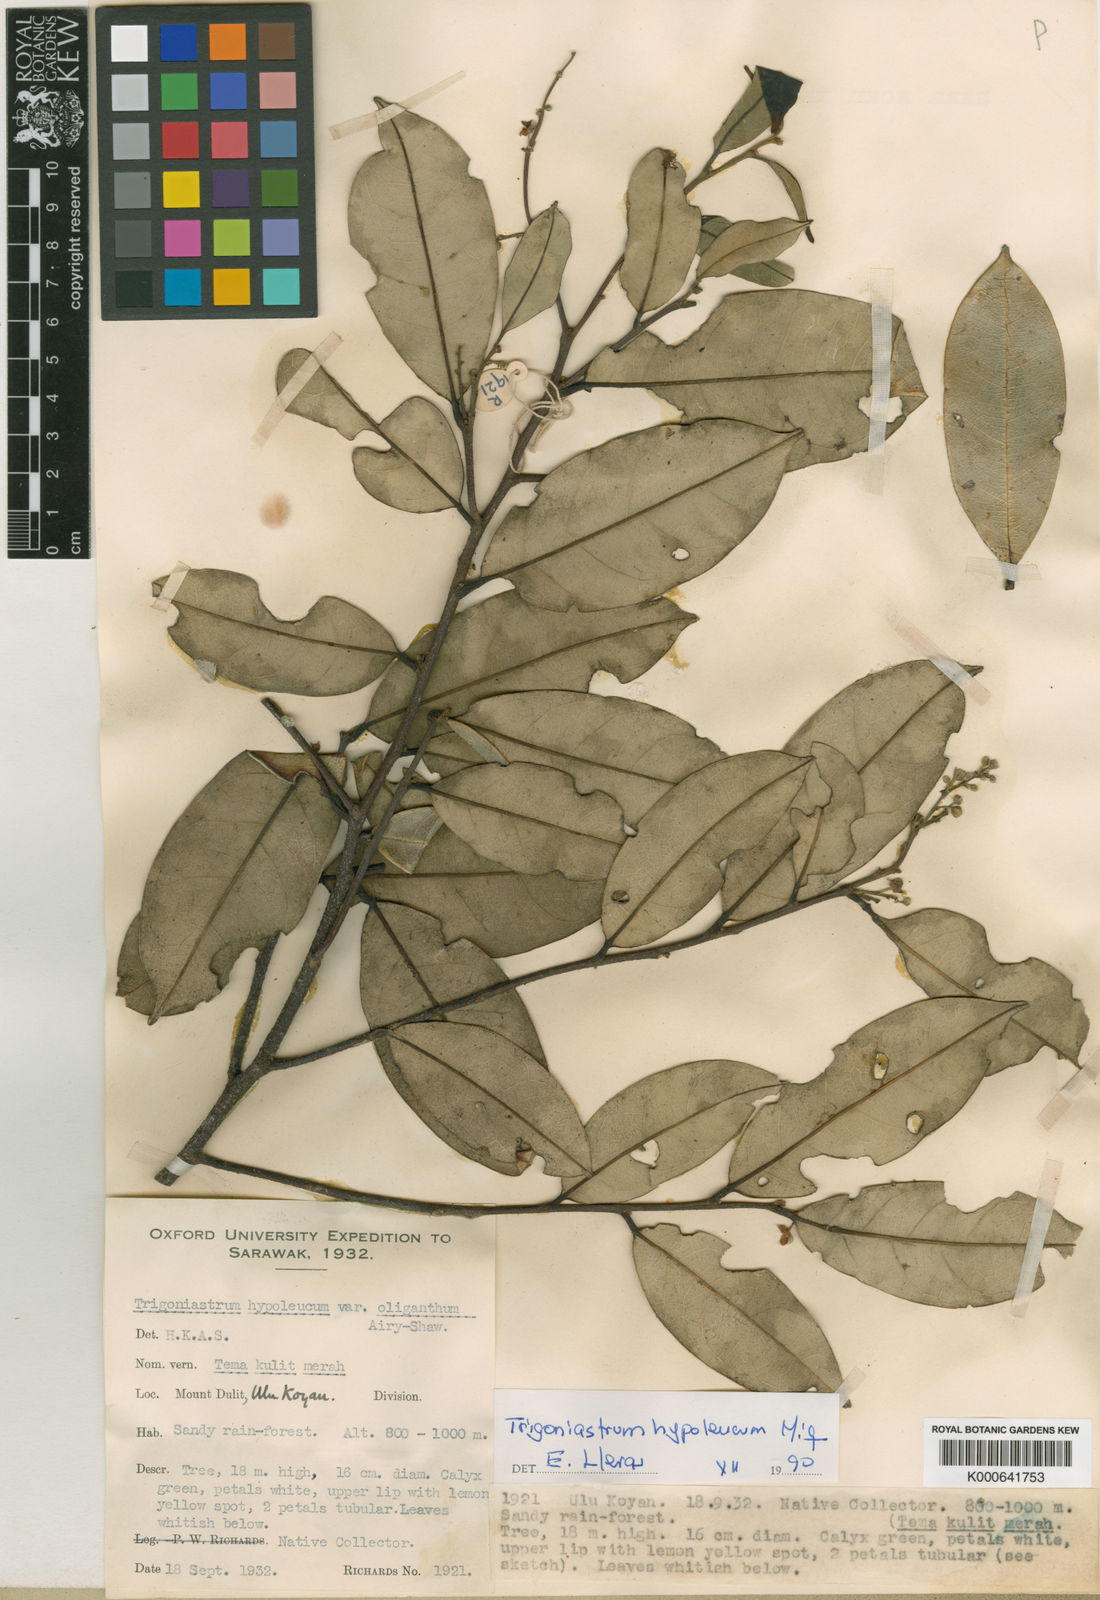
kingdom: Plantae
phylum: Tracheophyta
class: Magnoliopsida
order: Malpighiales
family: Trigoniaceae
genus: Trigoniastrum
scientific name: Trigoniastrum hypoleucum
